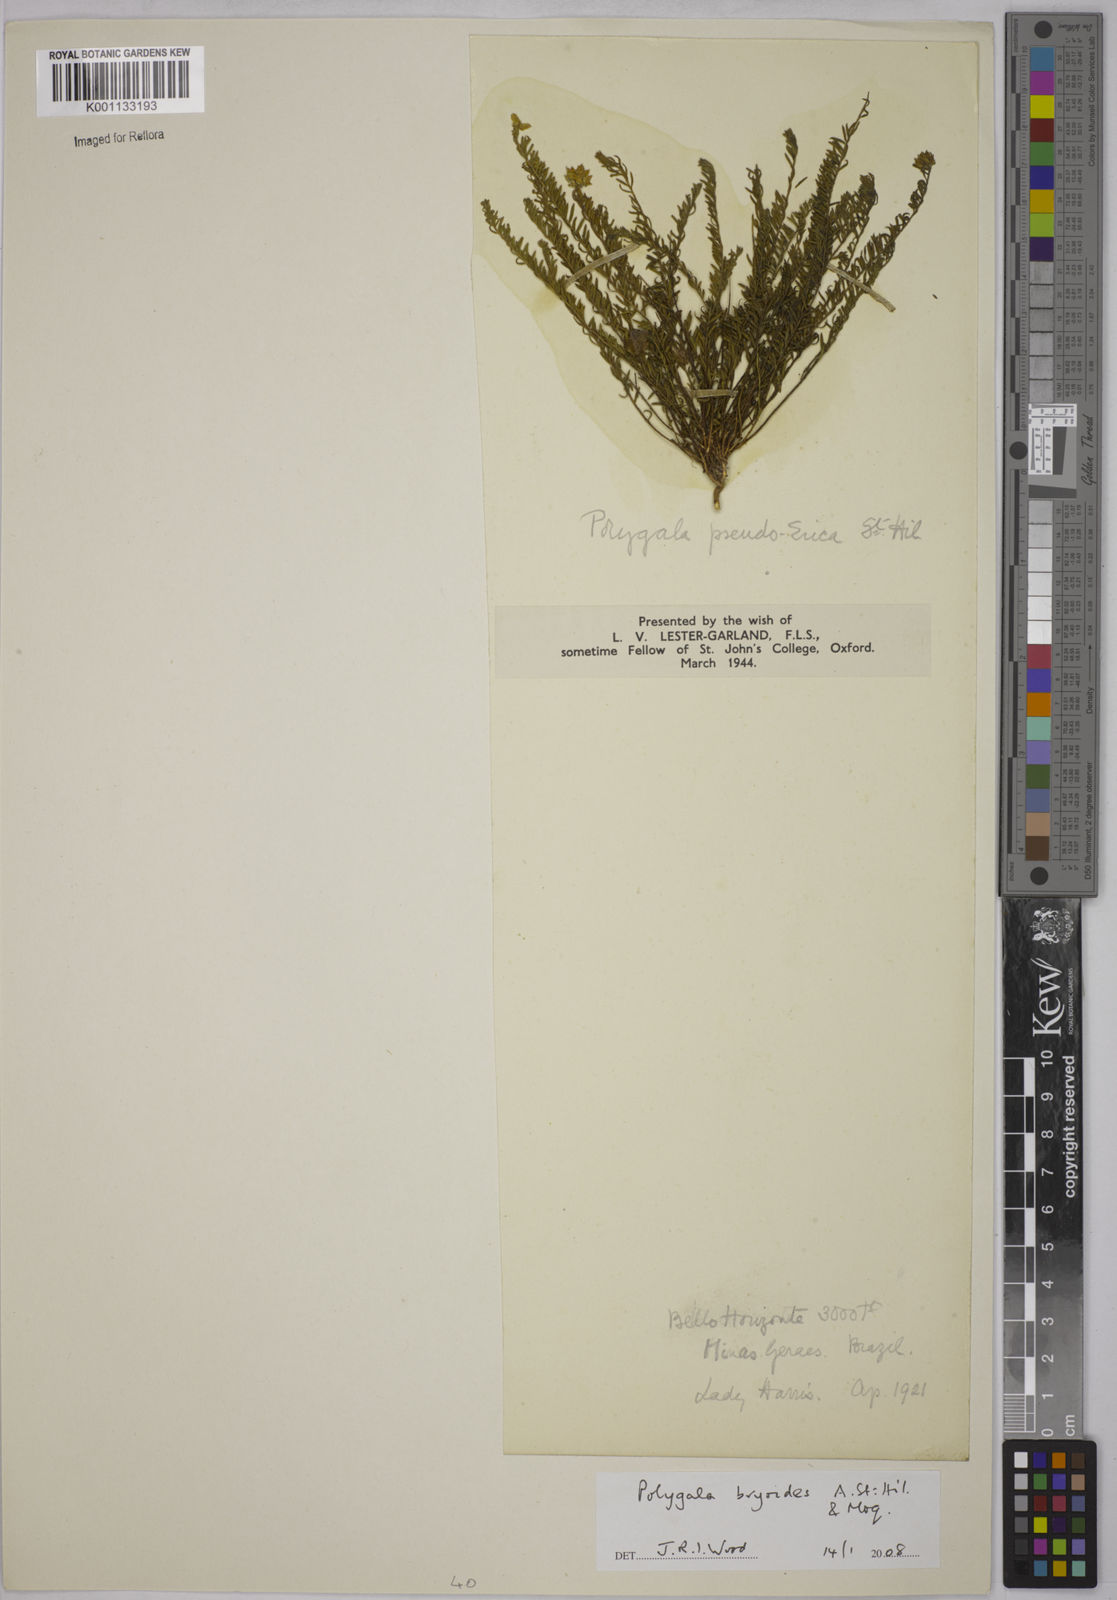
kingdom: Plantae
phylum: Tracheophyta
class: Magnoliopsida
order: Fabales
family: Polygalaceae
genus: Polygala
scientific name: Polygala bryoides
